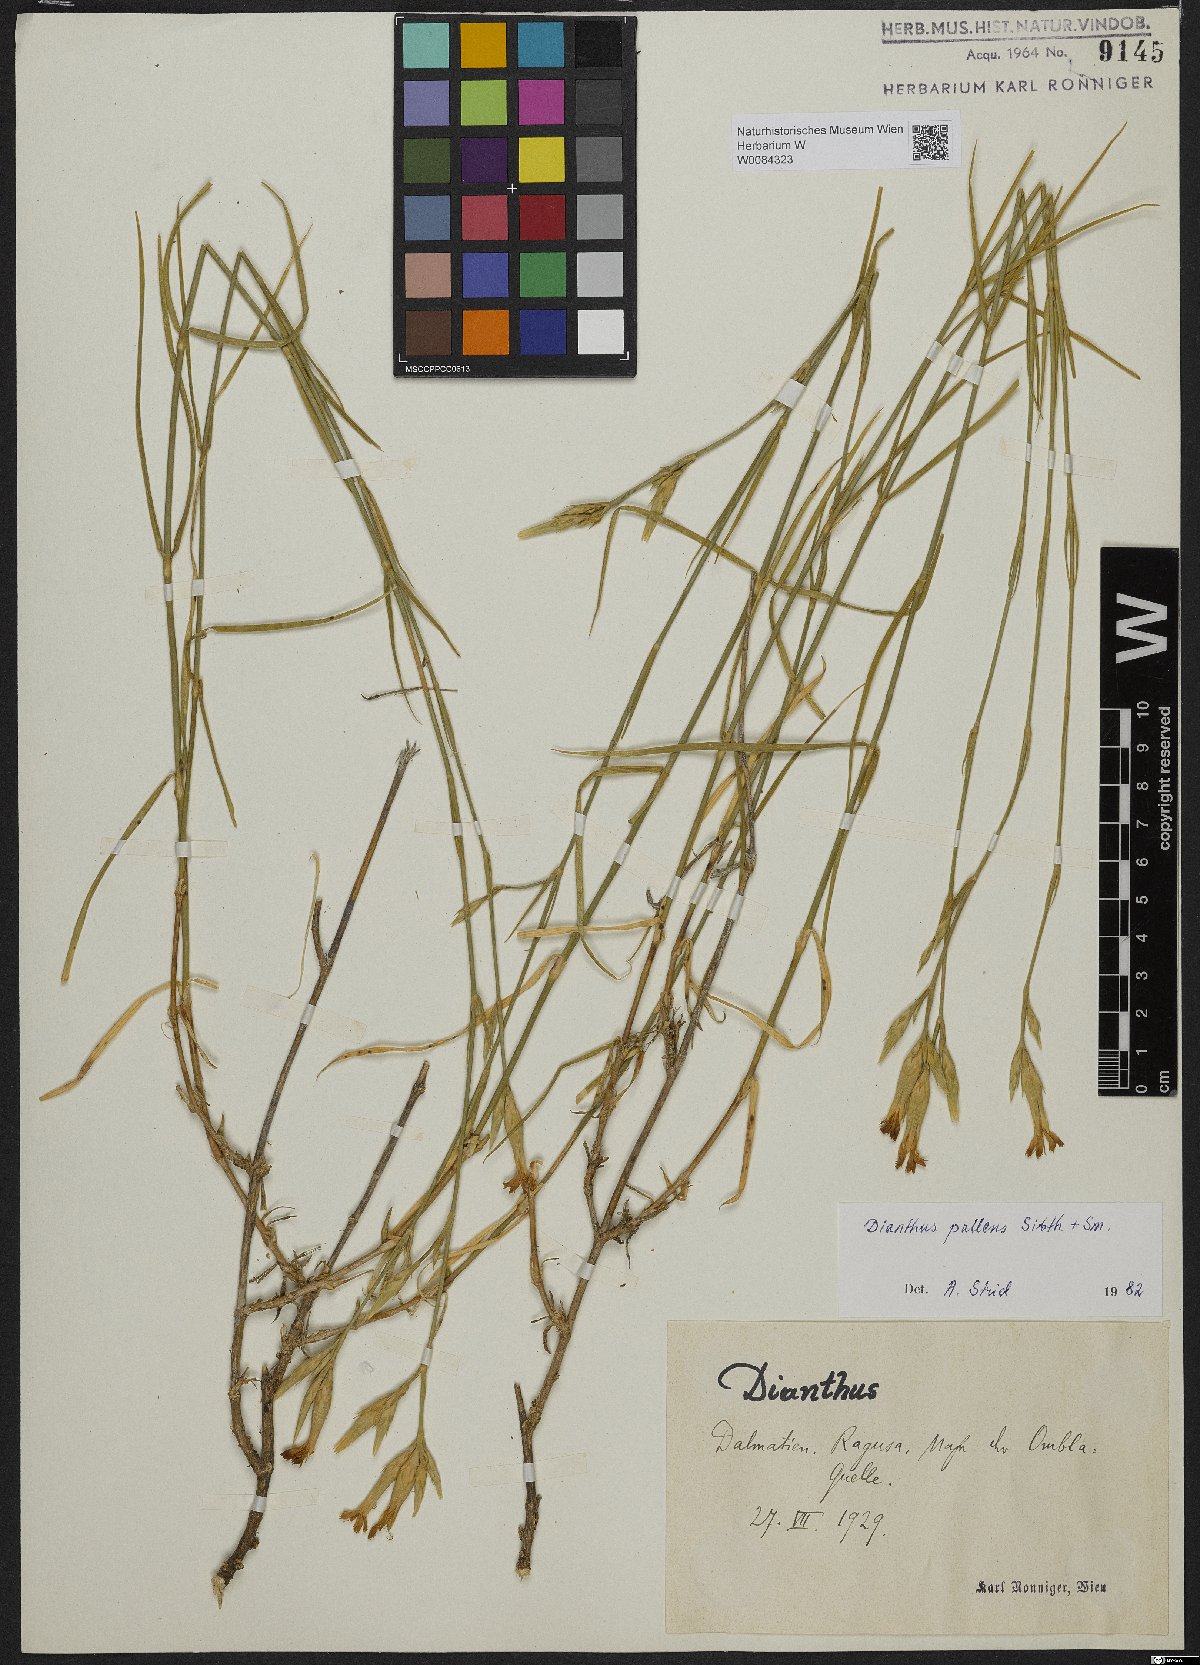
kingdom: Plantae
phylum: Tracheophyta
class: Magnoliopsida
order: Caryophyllales
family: Caryophyllaceae
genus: Dianthus
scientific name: Dianthus monadelphus
